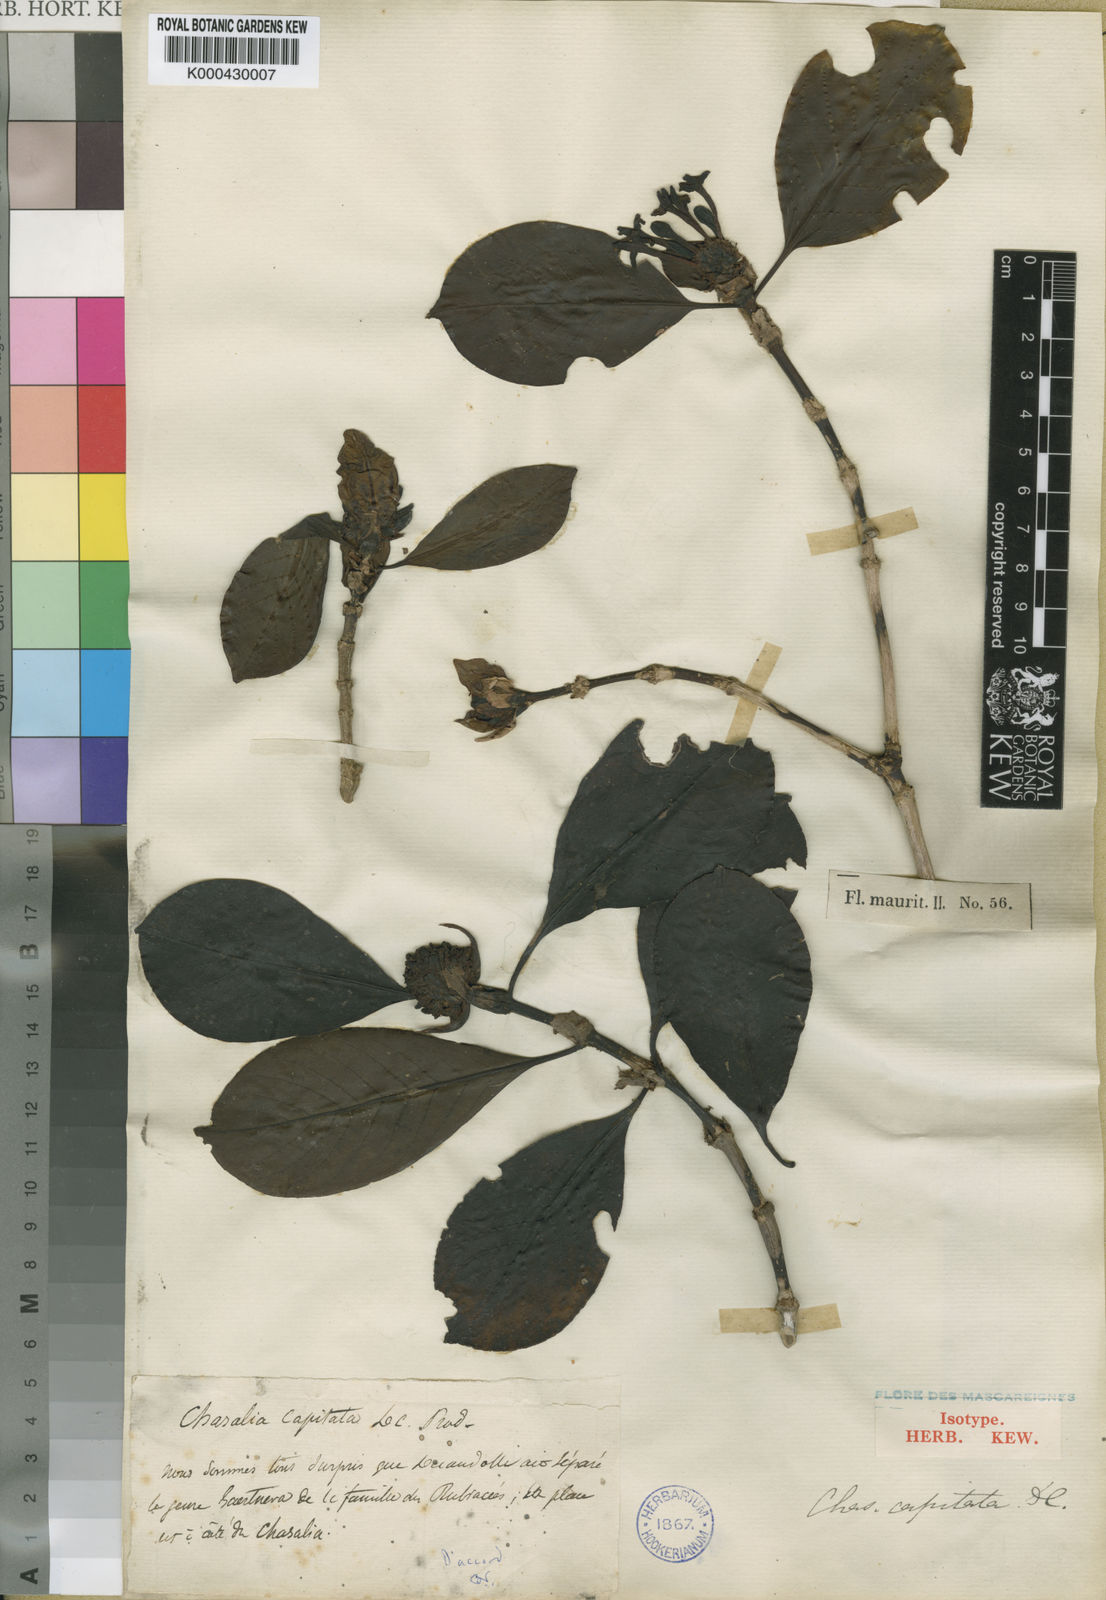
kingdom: Plantae
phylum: Tracheophyta
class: Magnoliopsida
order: Gentianales
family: Rubiaceae
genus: Chassalia
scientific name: Chassalia capitata
